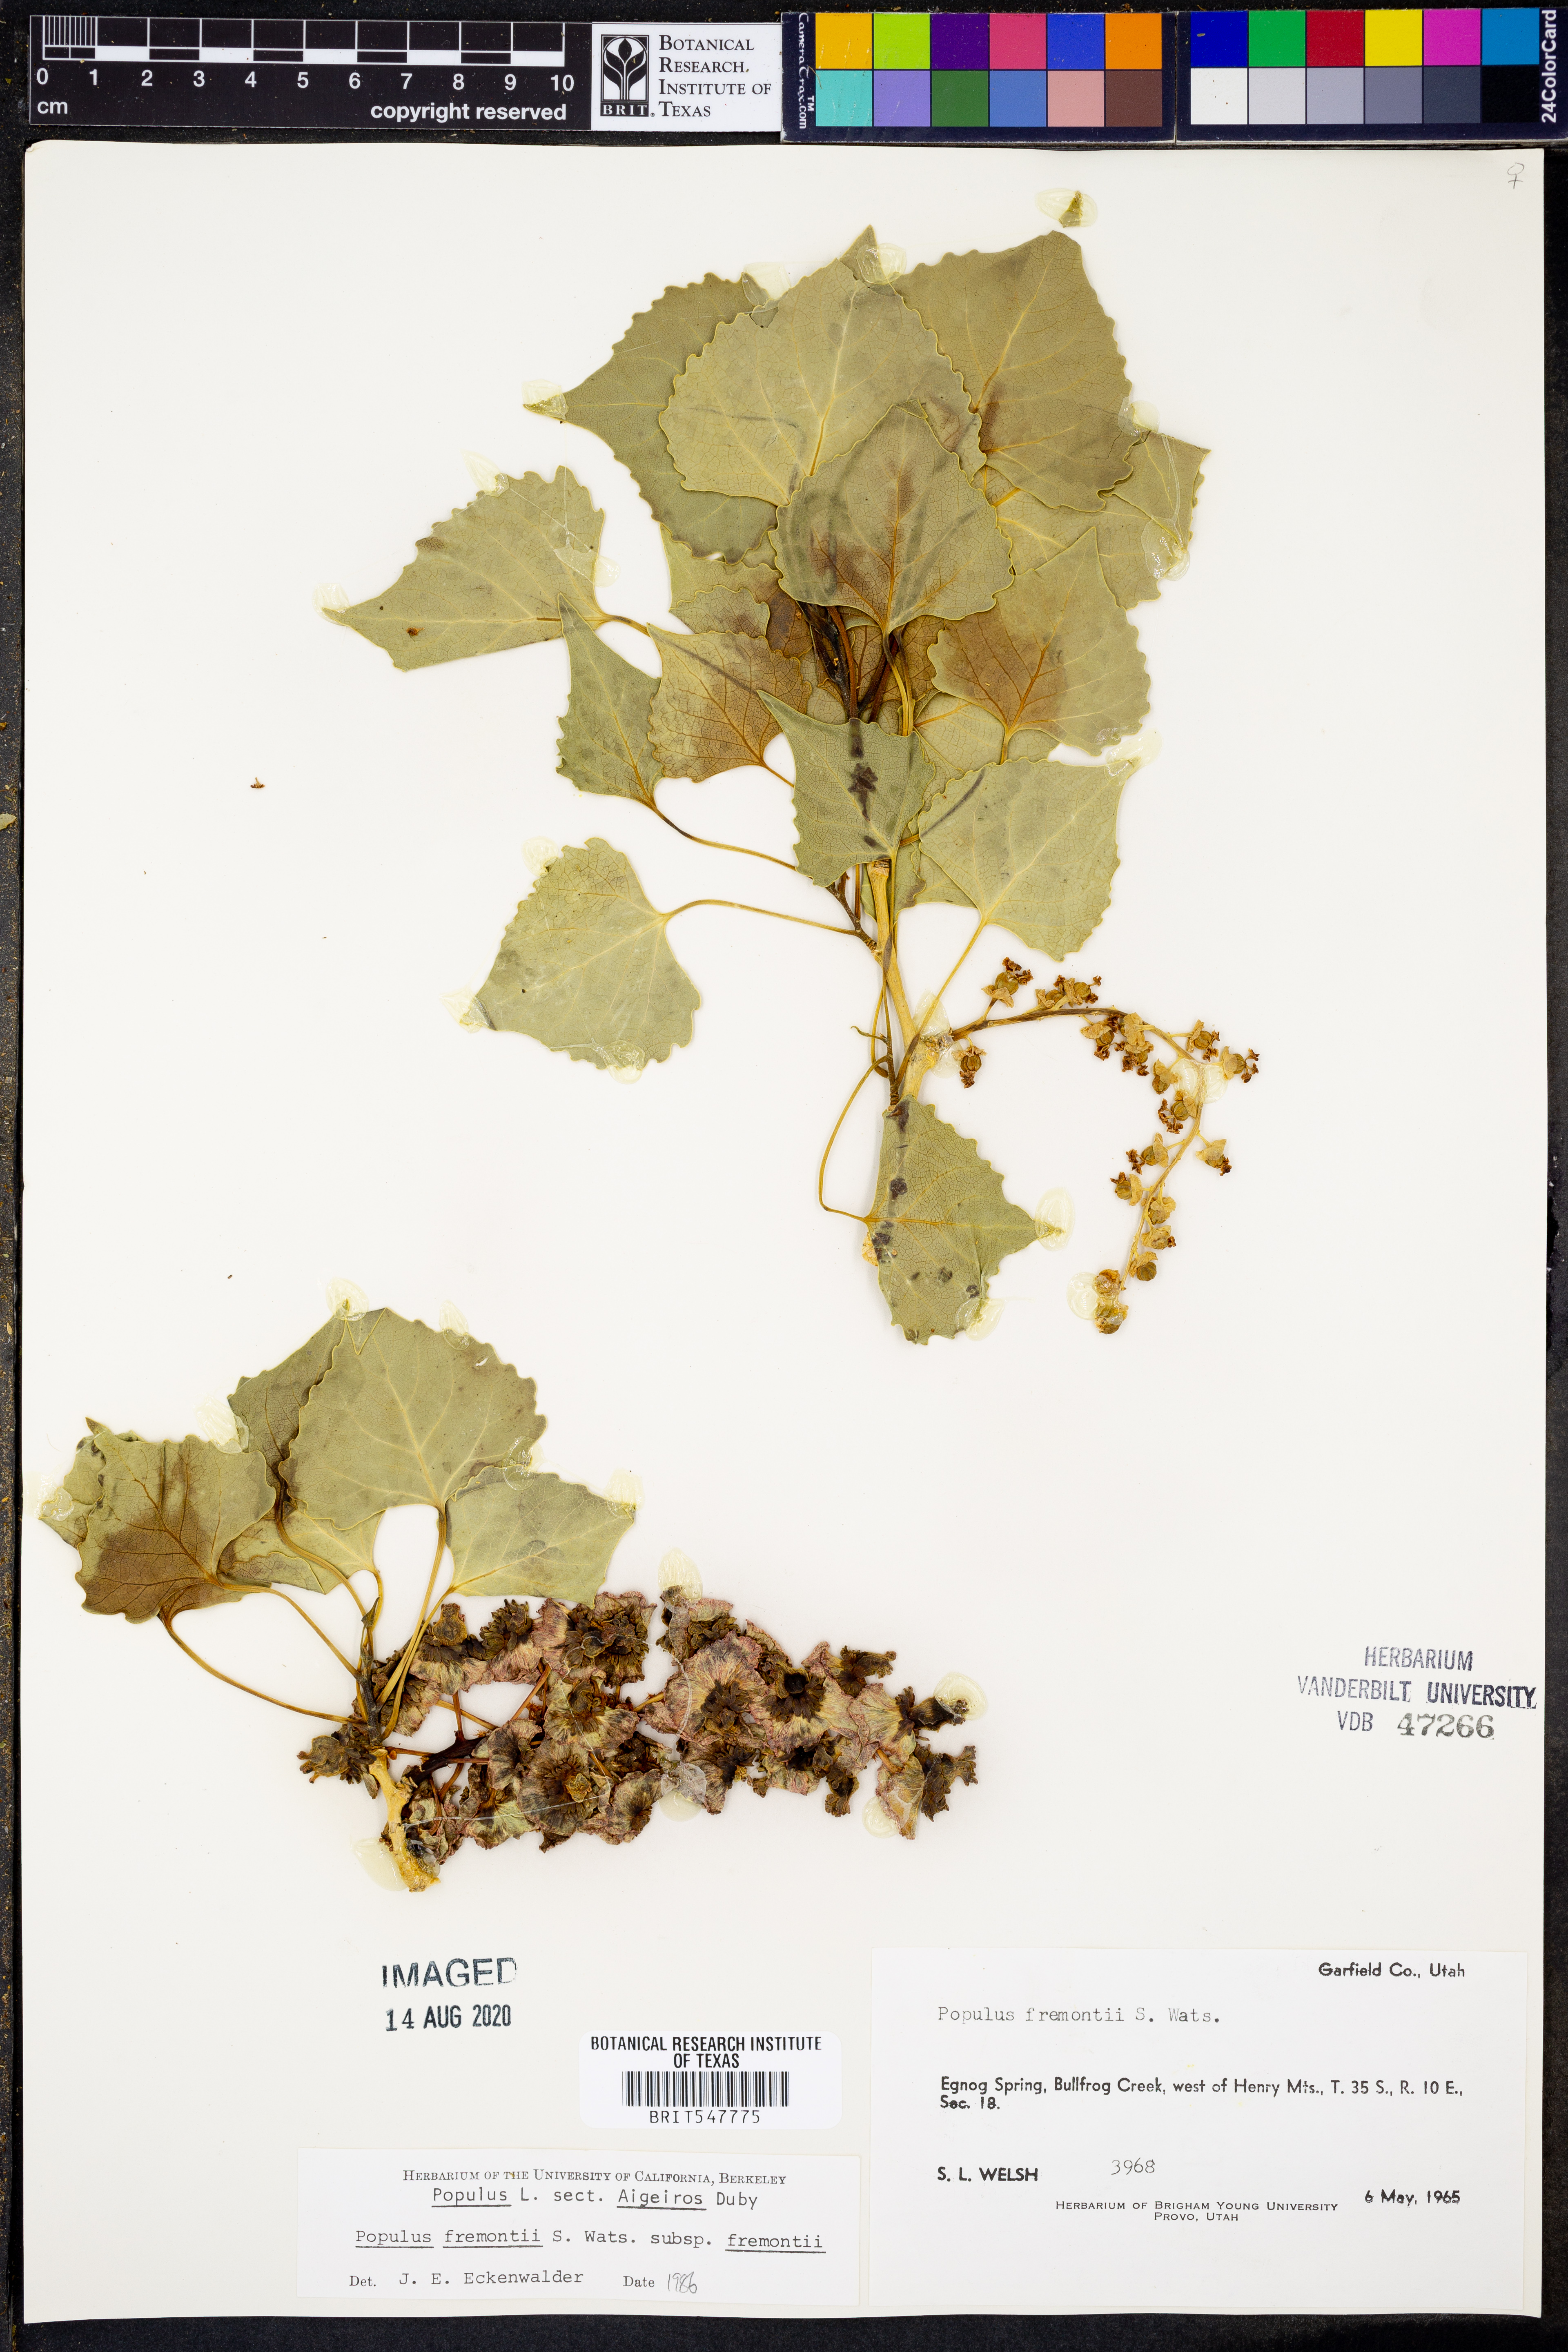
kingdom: Plantae
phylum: Tracheophyta
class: Magnoliopsida
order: Malpighiales
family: Salicaceae
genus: Populus
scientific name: Populus fremontii
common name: Fremont's cottonwood
